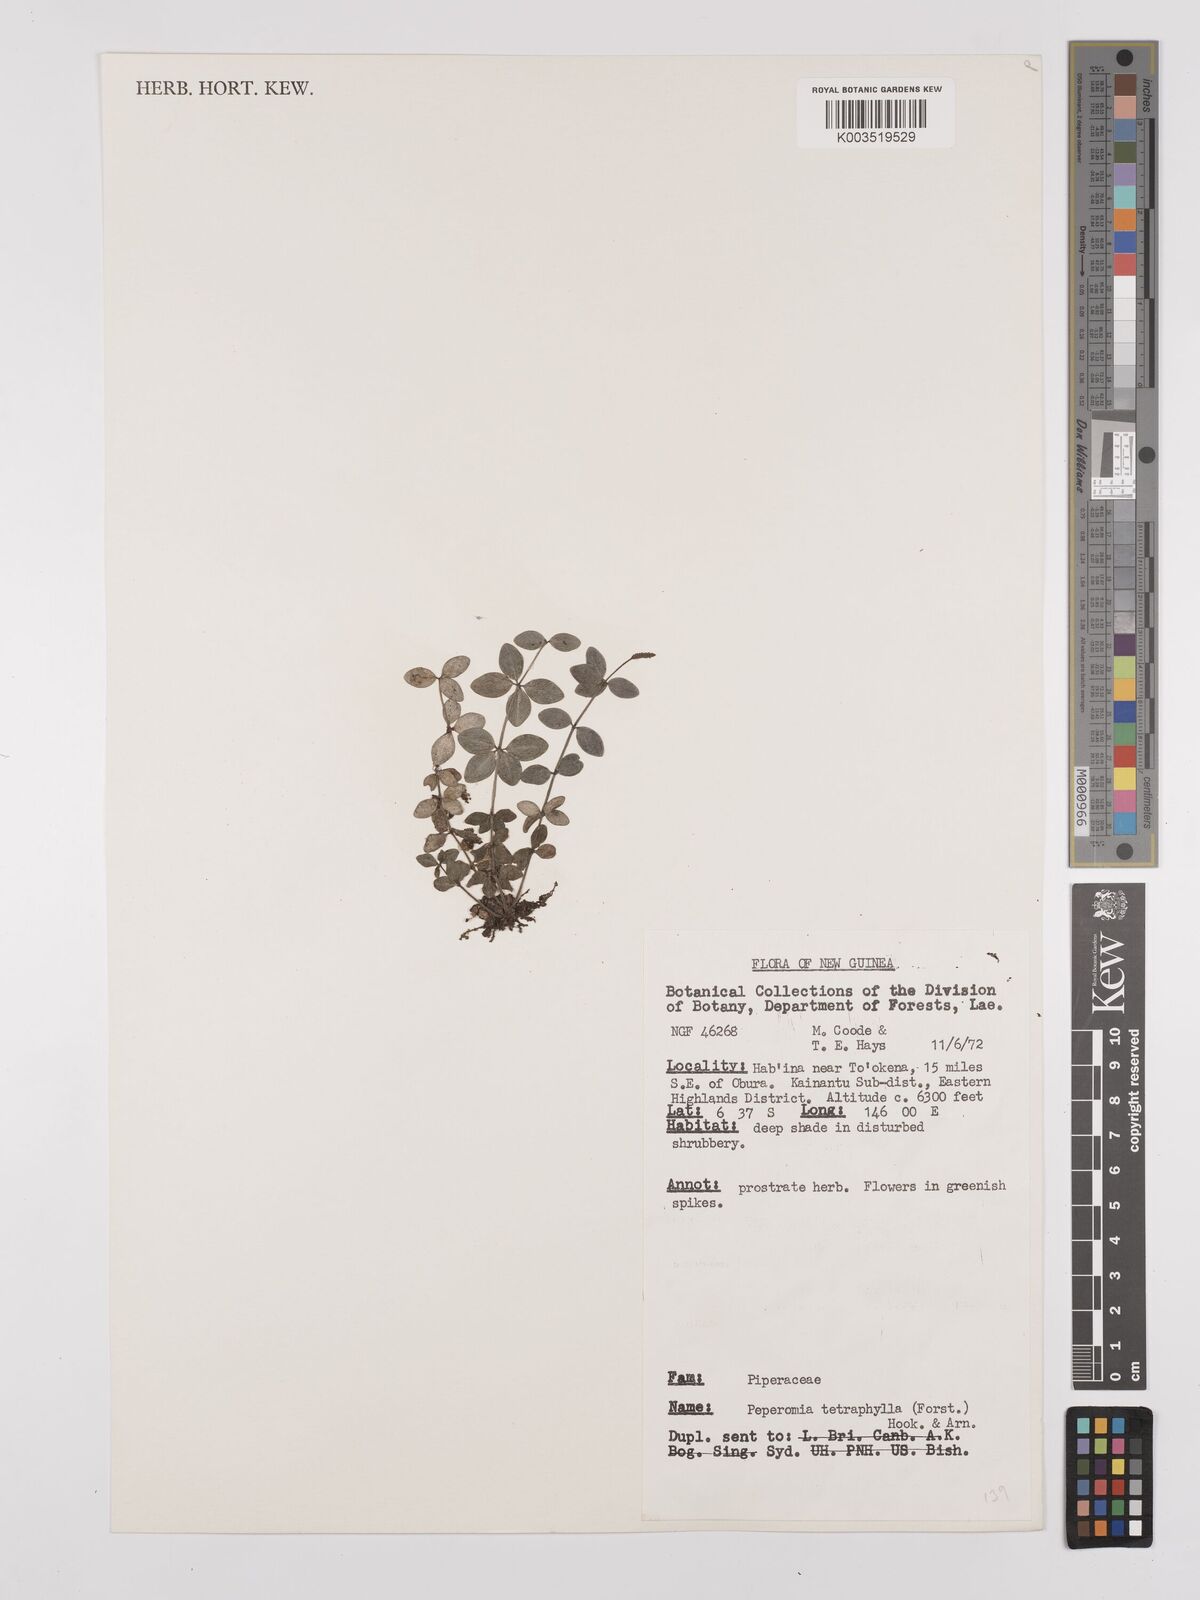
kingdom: Plantae
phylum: Tracheophyta
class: Magnoliopsida
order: Piperales
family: Piperaceae
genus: Peperomia
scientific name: Peperomia tetraphylla
